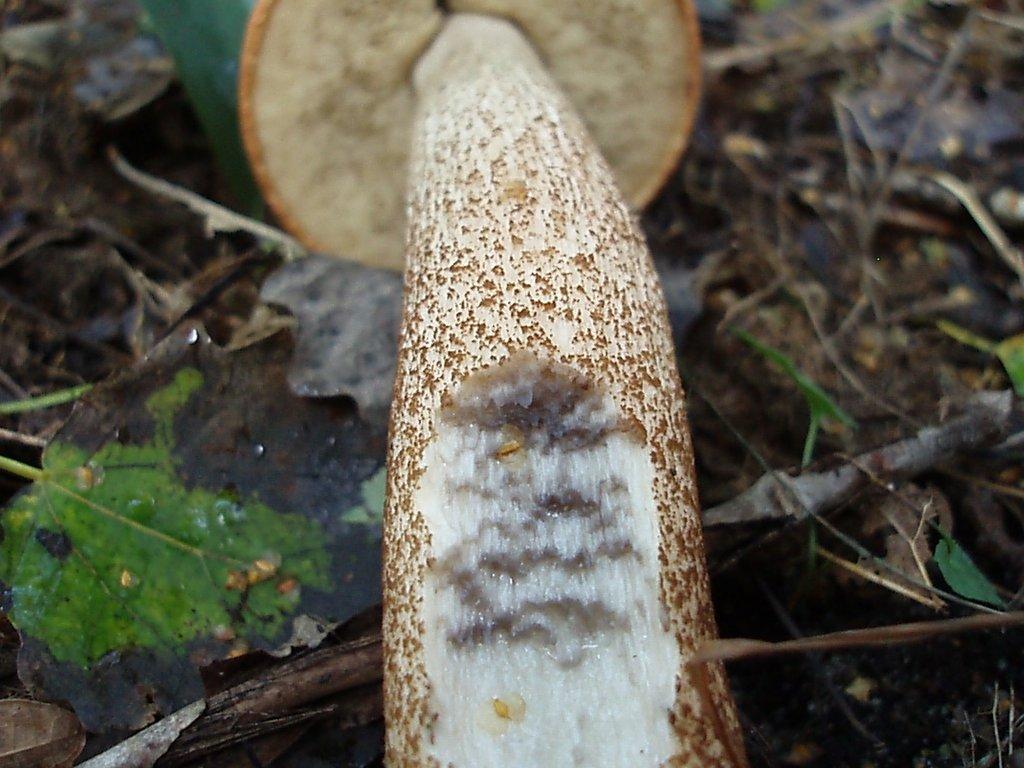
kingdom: Fungi
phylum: Basidiomycota
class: Agaricomycetes
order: Boletales
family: Boletaceae
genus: Leccinum
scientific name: Leccinum aurantiacum
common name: rustrød skælrørhat
